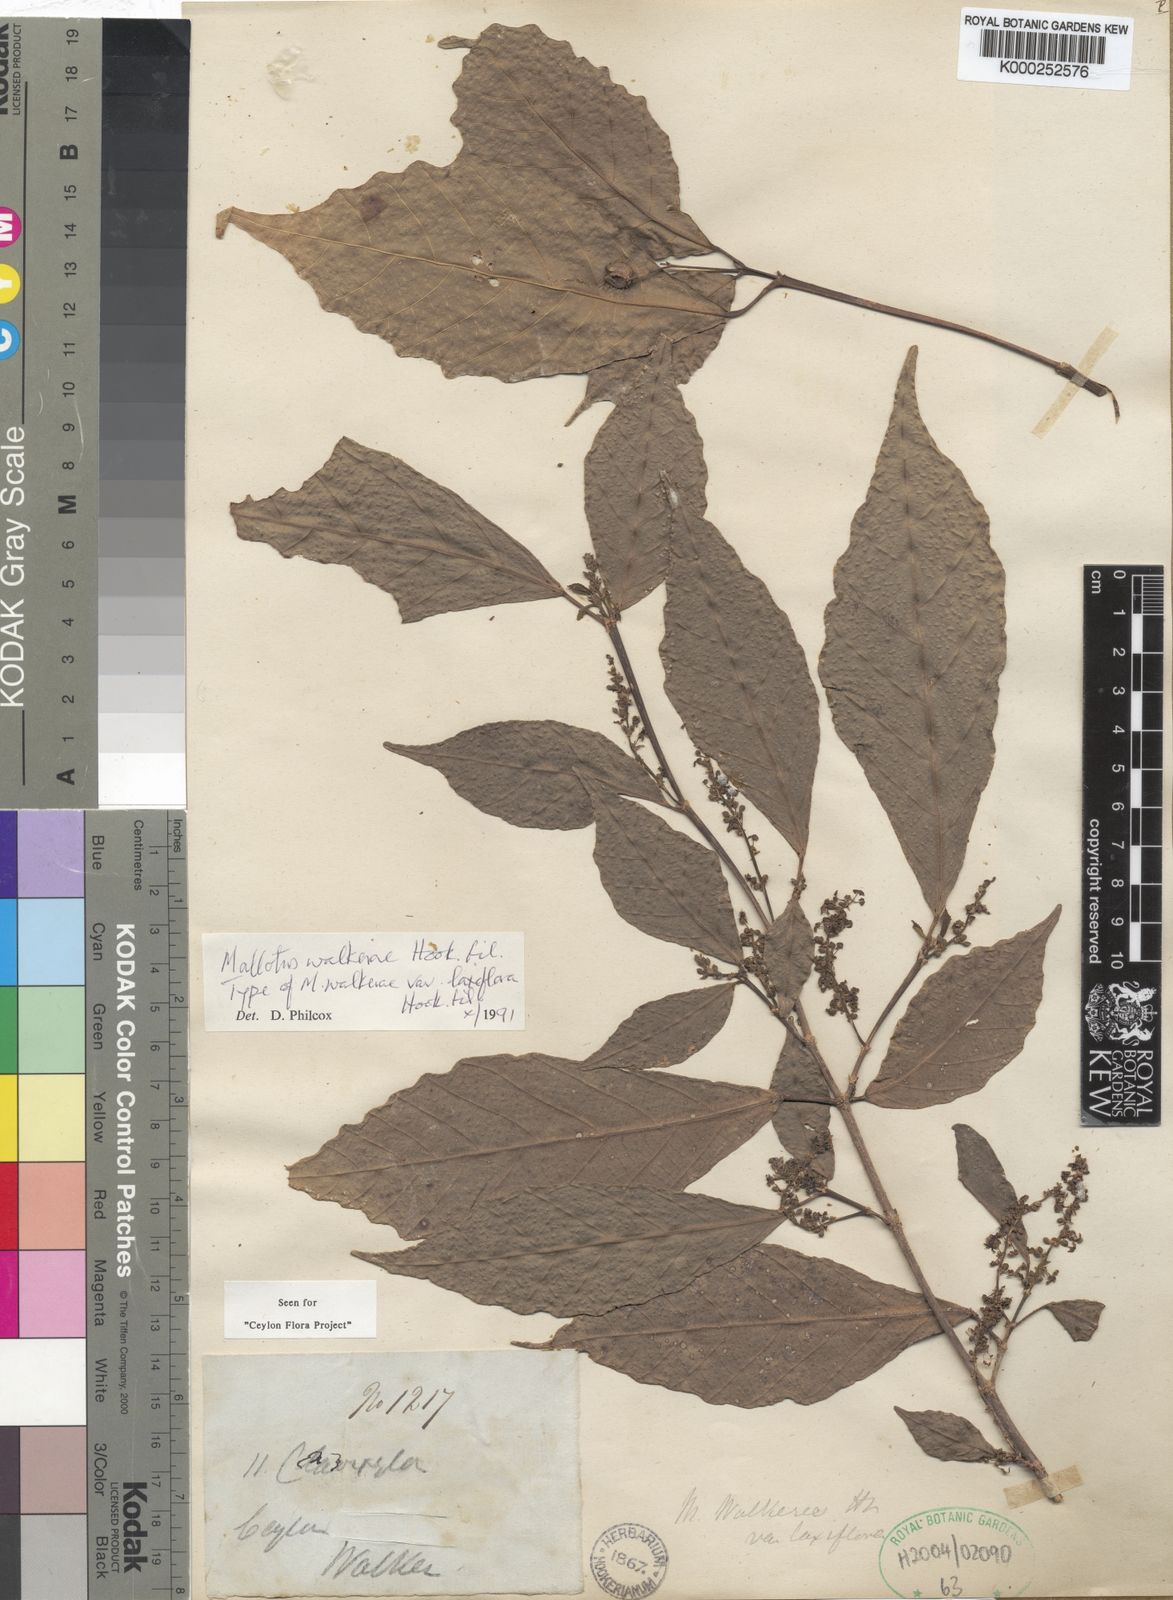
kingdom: Plantae
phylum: Tracheophyta
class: Magnoliopsida
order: Malpighiales
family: Euphorbiaceae
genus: Mallotus
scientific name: Mallotus resinosus
